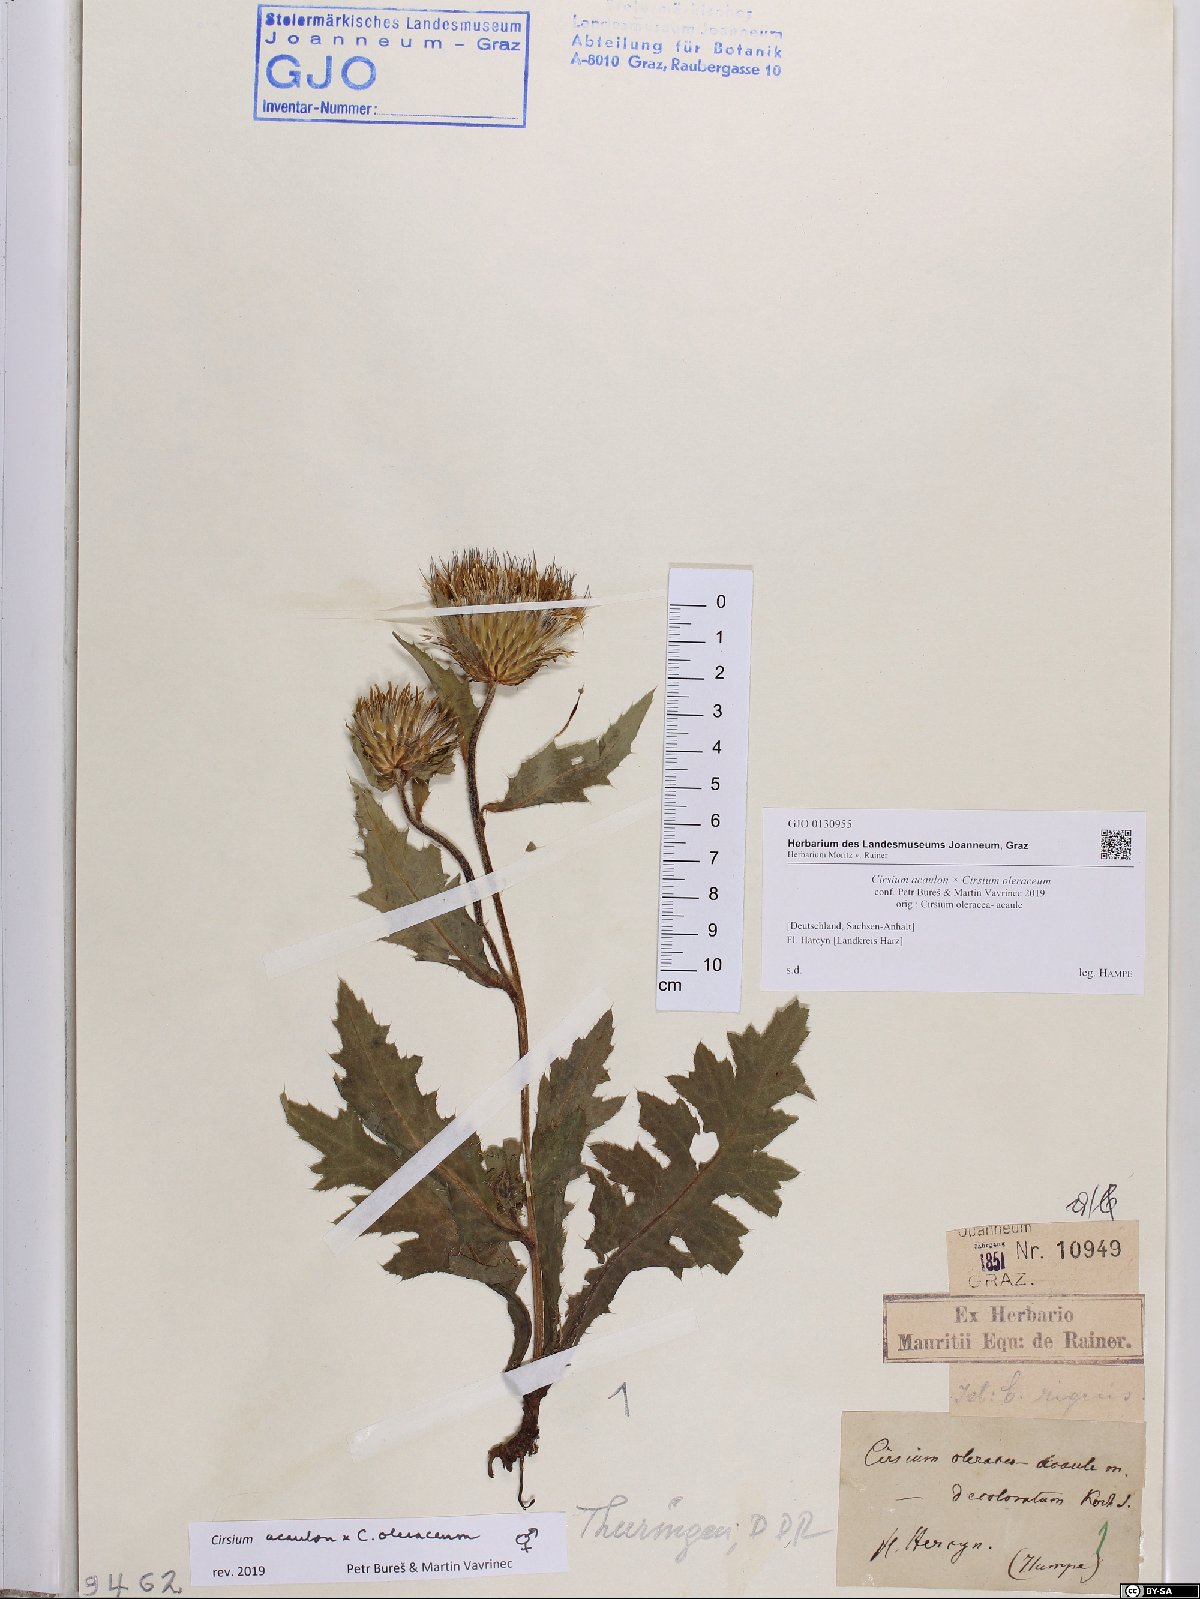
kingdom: Plantae
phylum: Tracheophyta
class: Magnoliopsida
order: Asterales
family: Asteraceae
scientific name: Asteraceae
